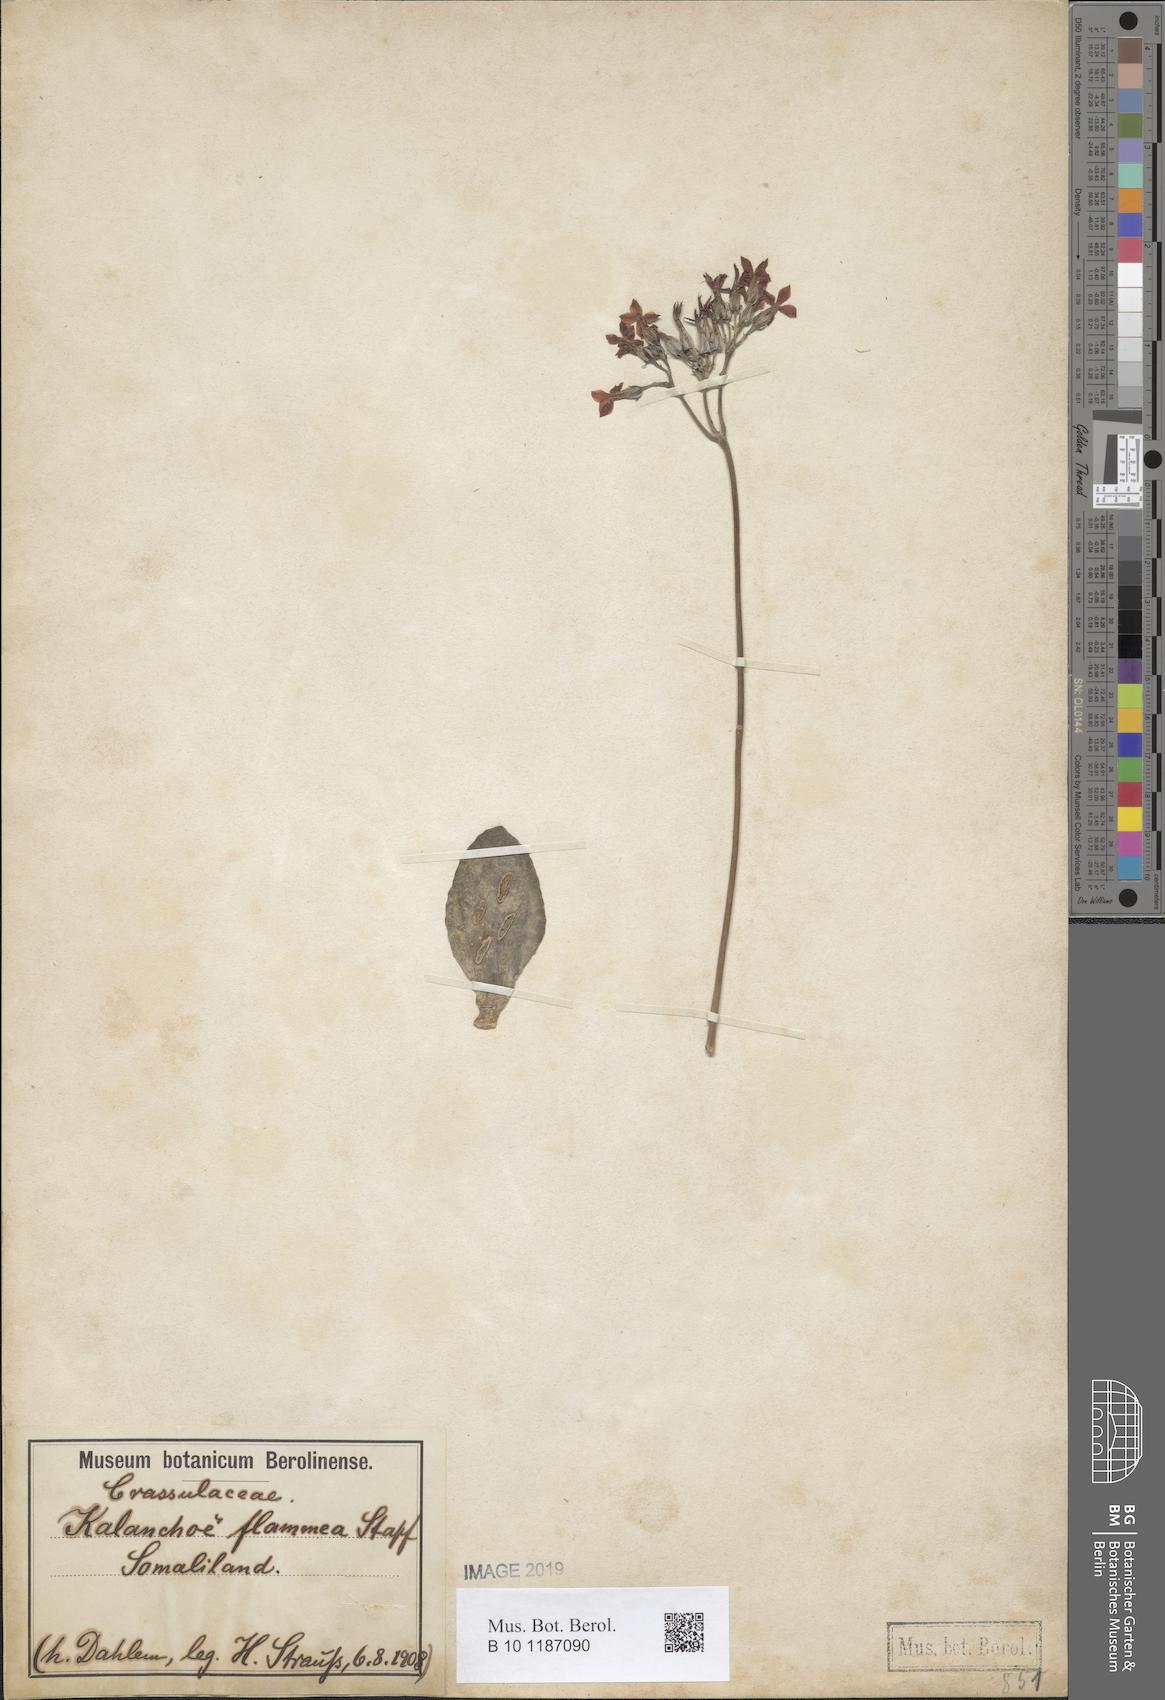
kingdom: Plantae
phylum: Tracheophyta
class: Magnoliopsida
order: Saxifragales
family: Crassulaceae
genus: Kalanchoe
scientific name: Kalanchoe glaucescens
